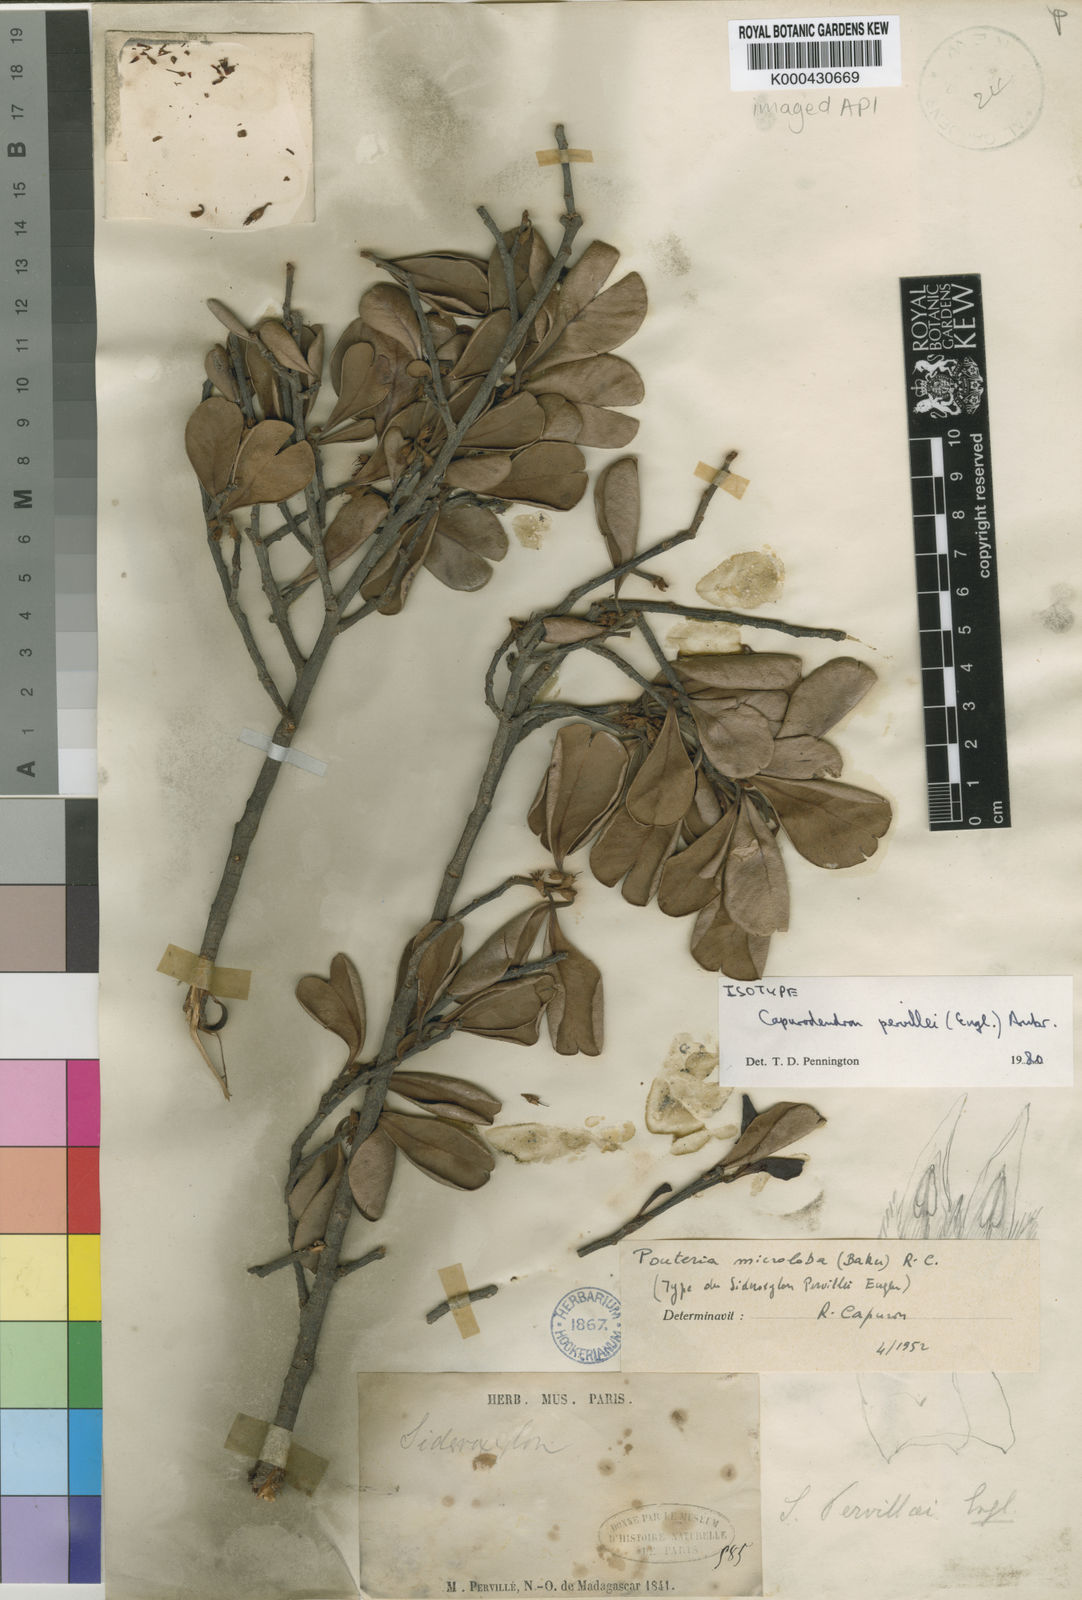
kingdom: Plantae
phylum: Tracheophyta
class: Magnoliopsida
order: Ericales
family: Sapotaceae
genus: Capurodendron
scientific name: Capurodendron
